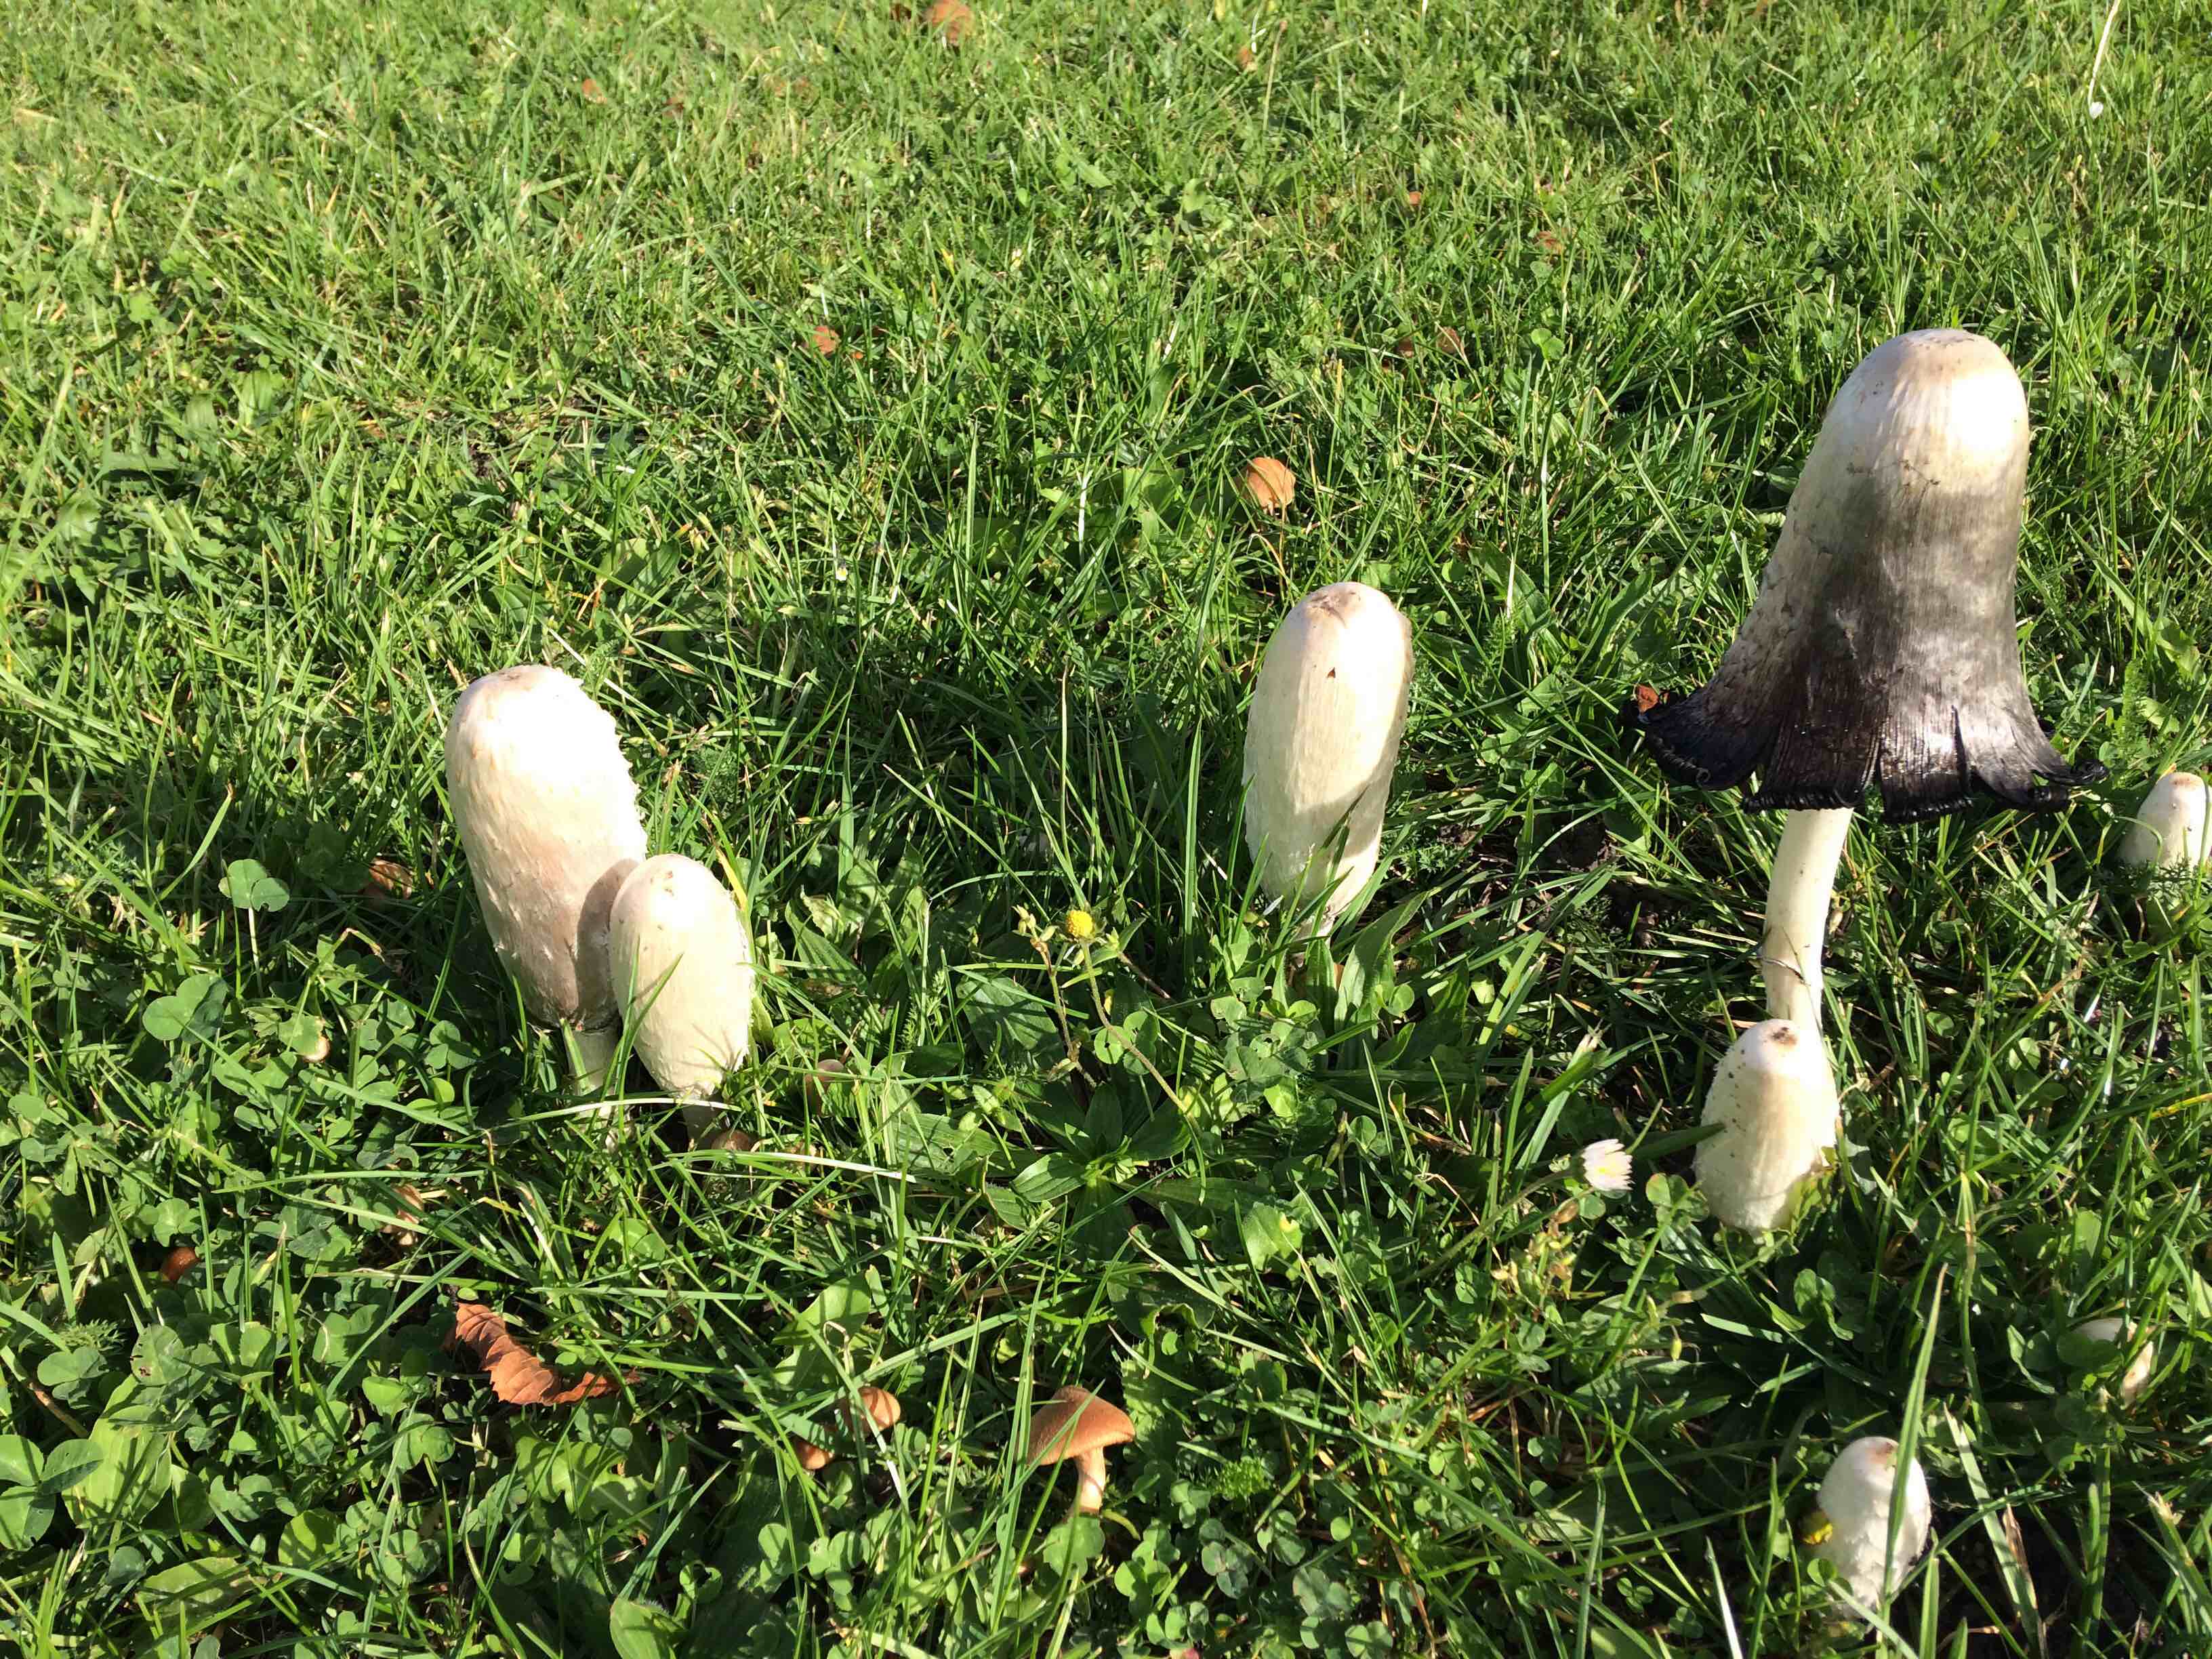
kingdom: Fungi
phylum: Basidiomycota
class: Agaricomycetes
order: Agaricales
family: Agaricaceae
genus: Coprinus
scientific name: Coprinus comatus
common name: stor parykhat
